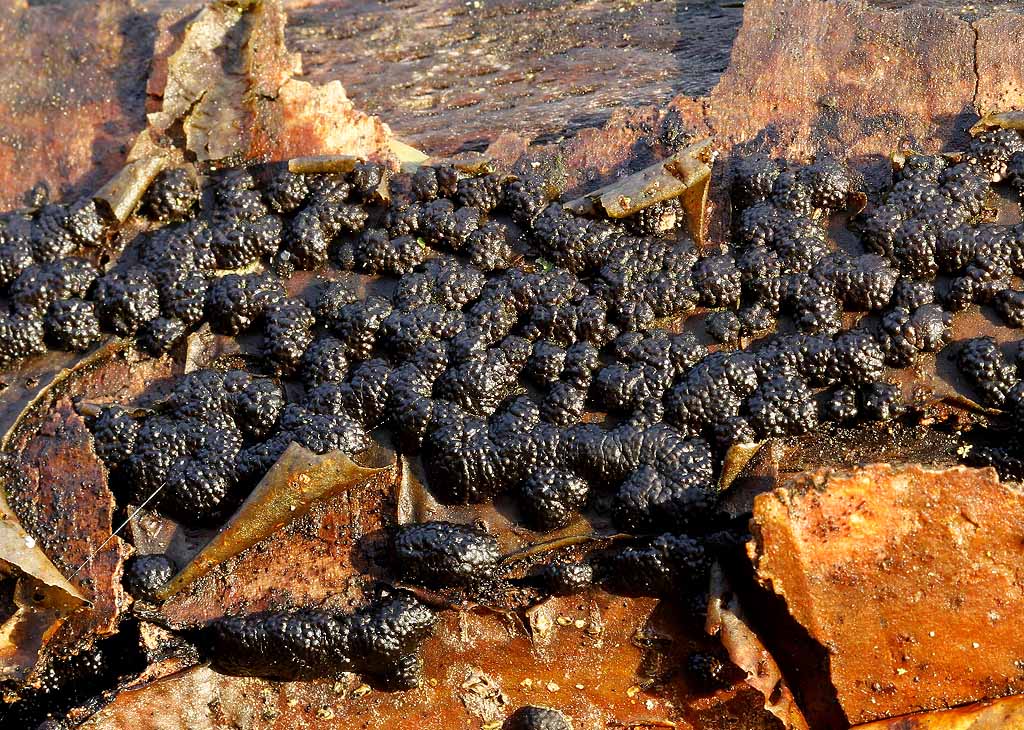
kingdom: Fungi
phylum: Ascomycota
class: Sordariomycetes
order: Xylariales
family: Hypoxylaceae
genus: Jackrogersella
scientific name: Jackrogersella cohaerens
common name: sammenflydende kulbær
